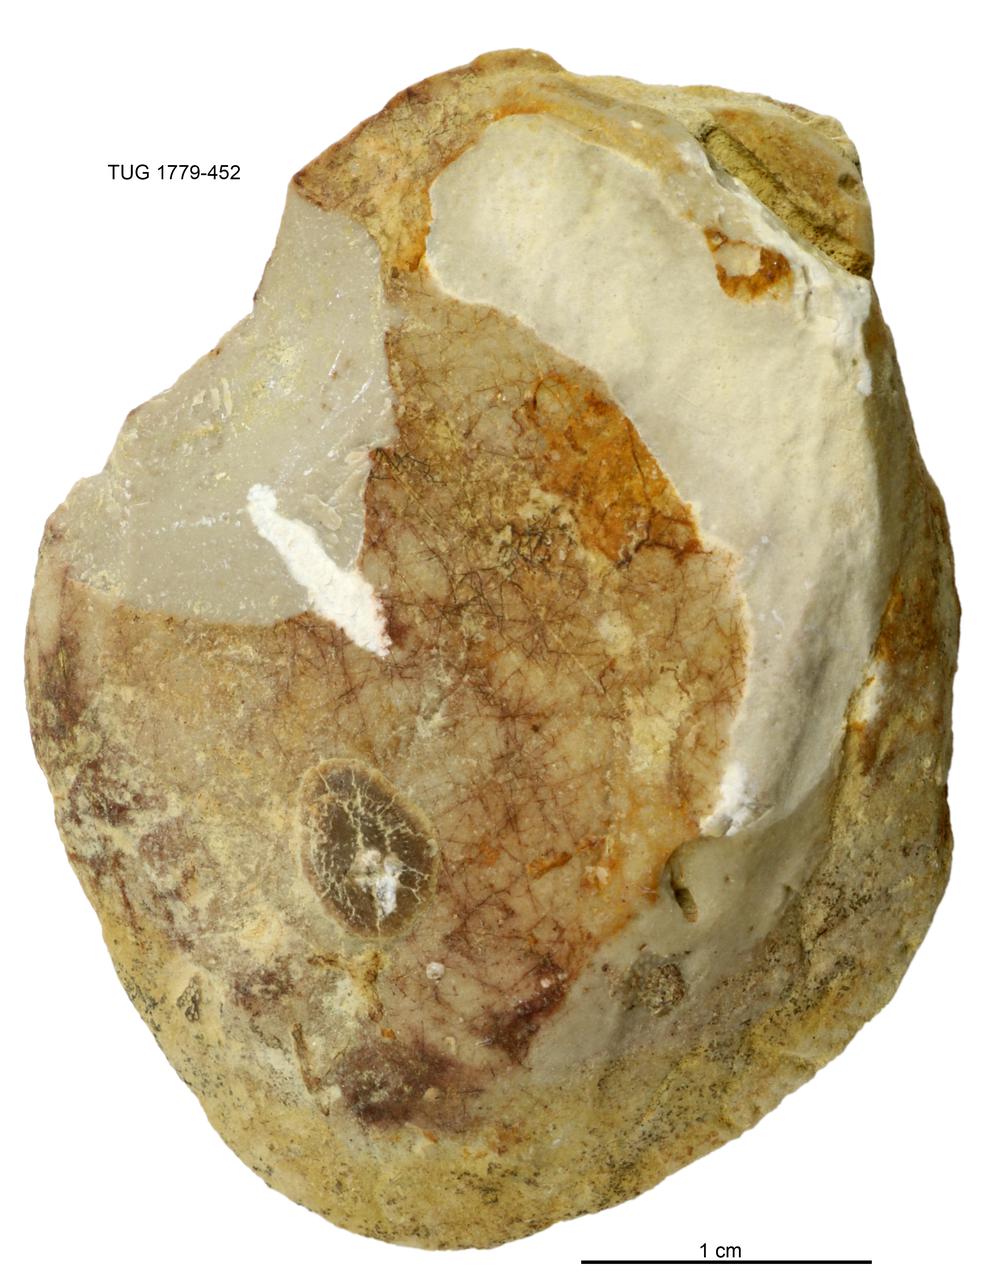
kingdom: Animalia
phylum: Mollusca
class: Bivalvia
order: Modiomorphida
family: Modiomorphidae
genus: Modiolopsis
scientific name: Modiolopsis
